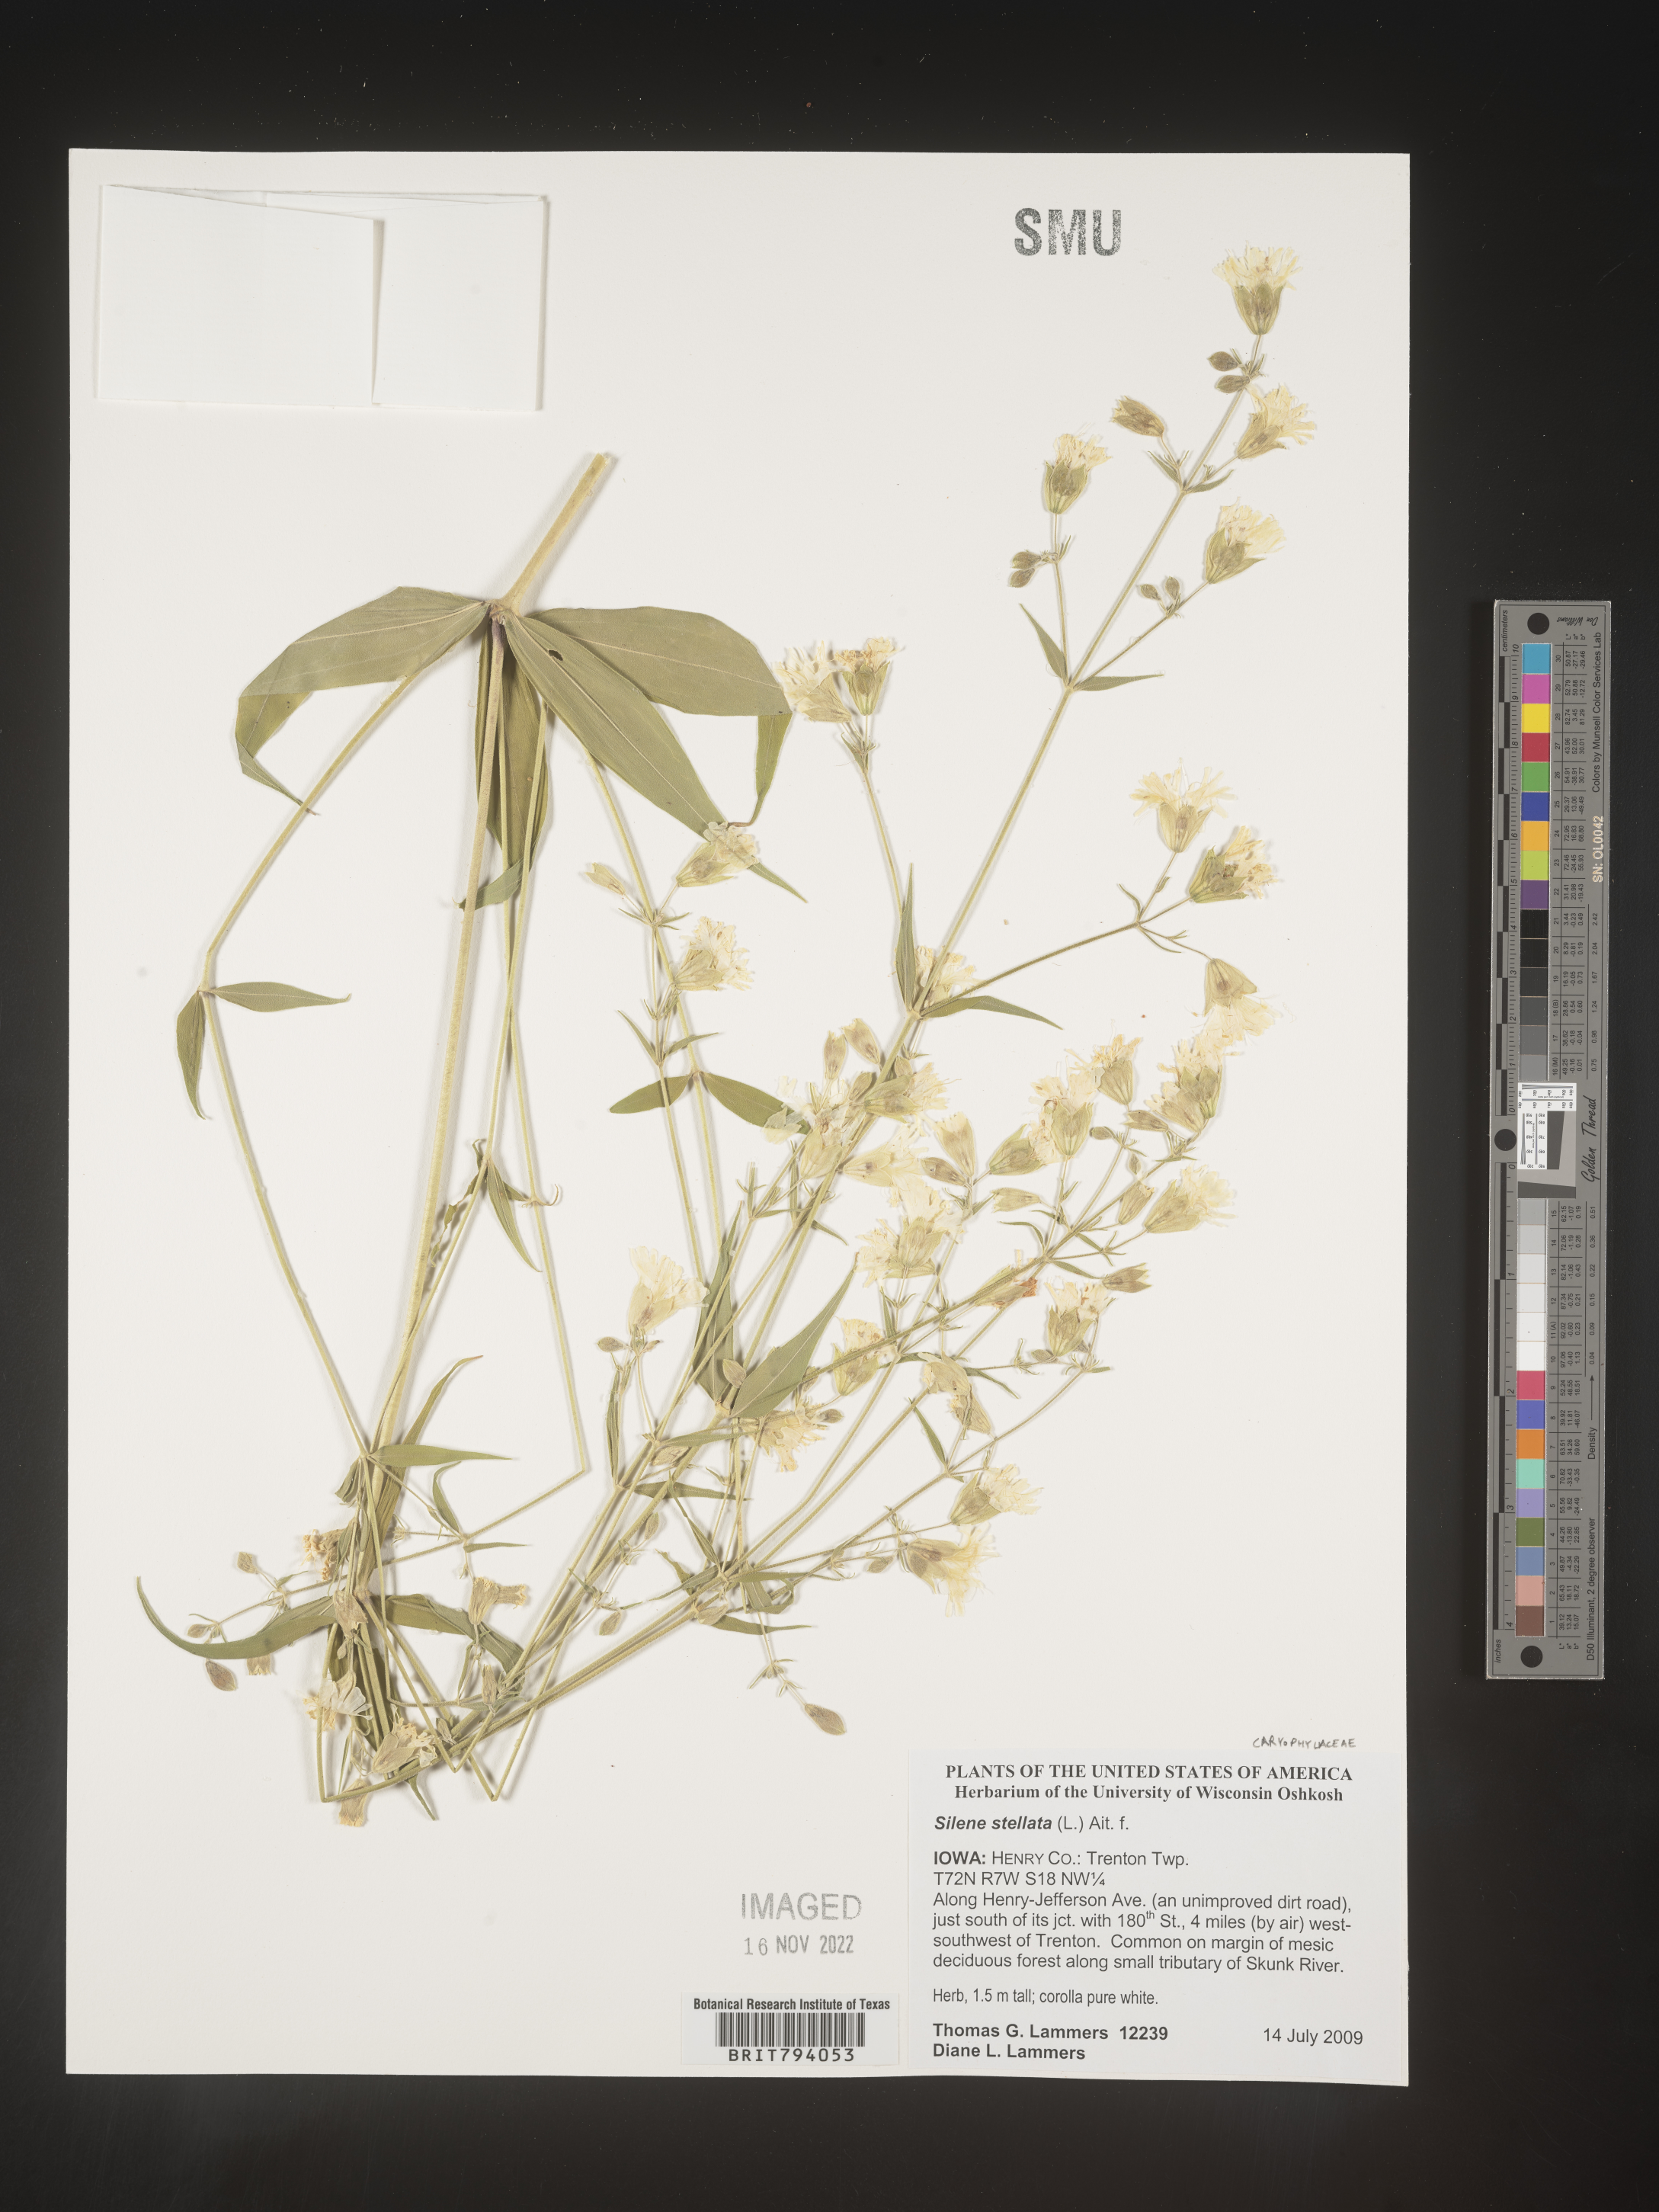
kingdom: Plantae
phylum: Tracheophyta
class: Magnoliopsida
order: Caryophyllales
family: Caryophyllaceae
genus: Silene
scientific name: Silene stellata
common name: Starry campion
